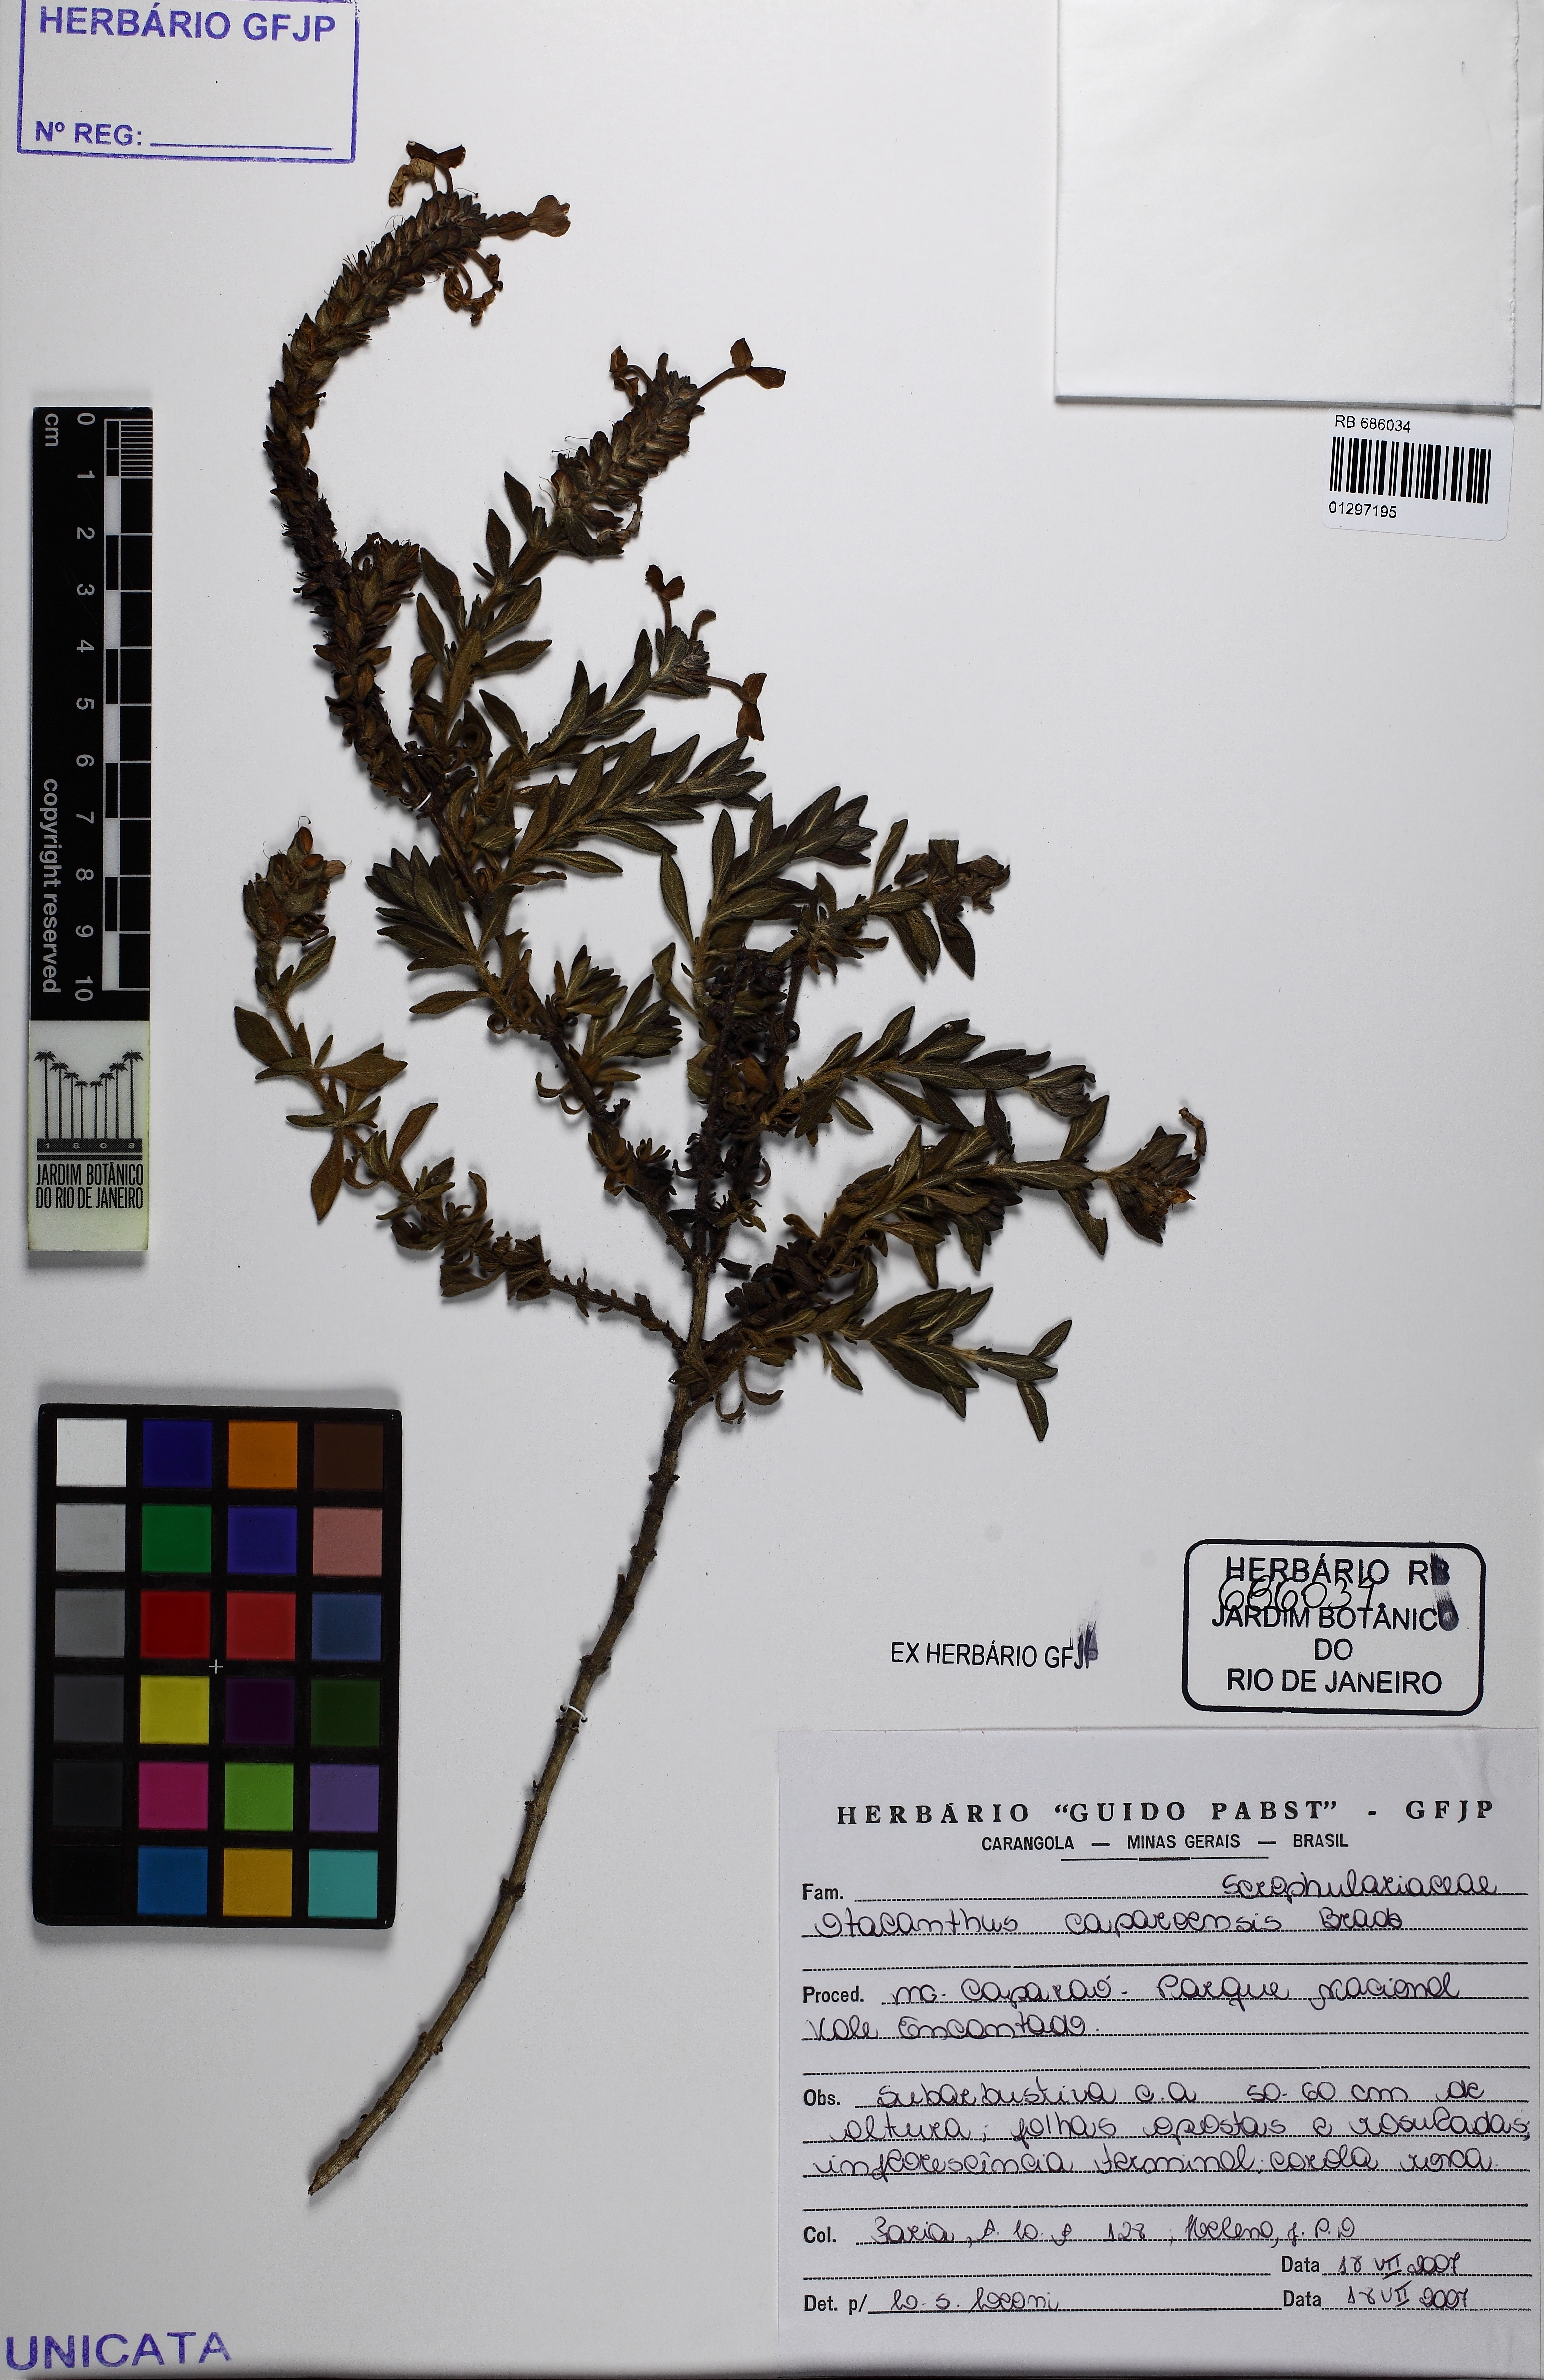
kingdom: Plantae
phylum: Tracheophyta
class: Magnoliopsida
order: Lamiales
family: Plantaginaceae
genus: Matourea
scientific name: Matourea
